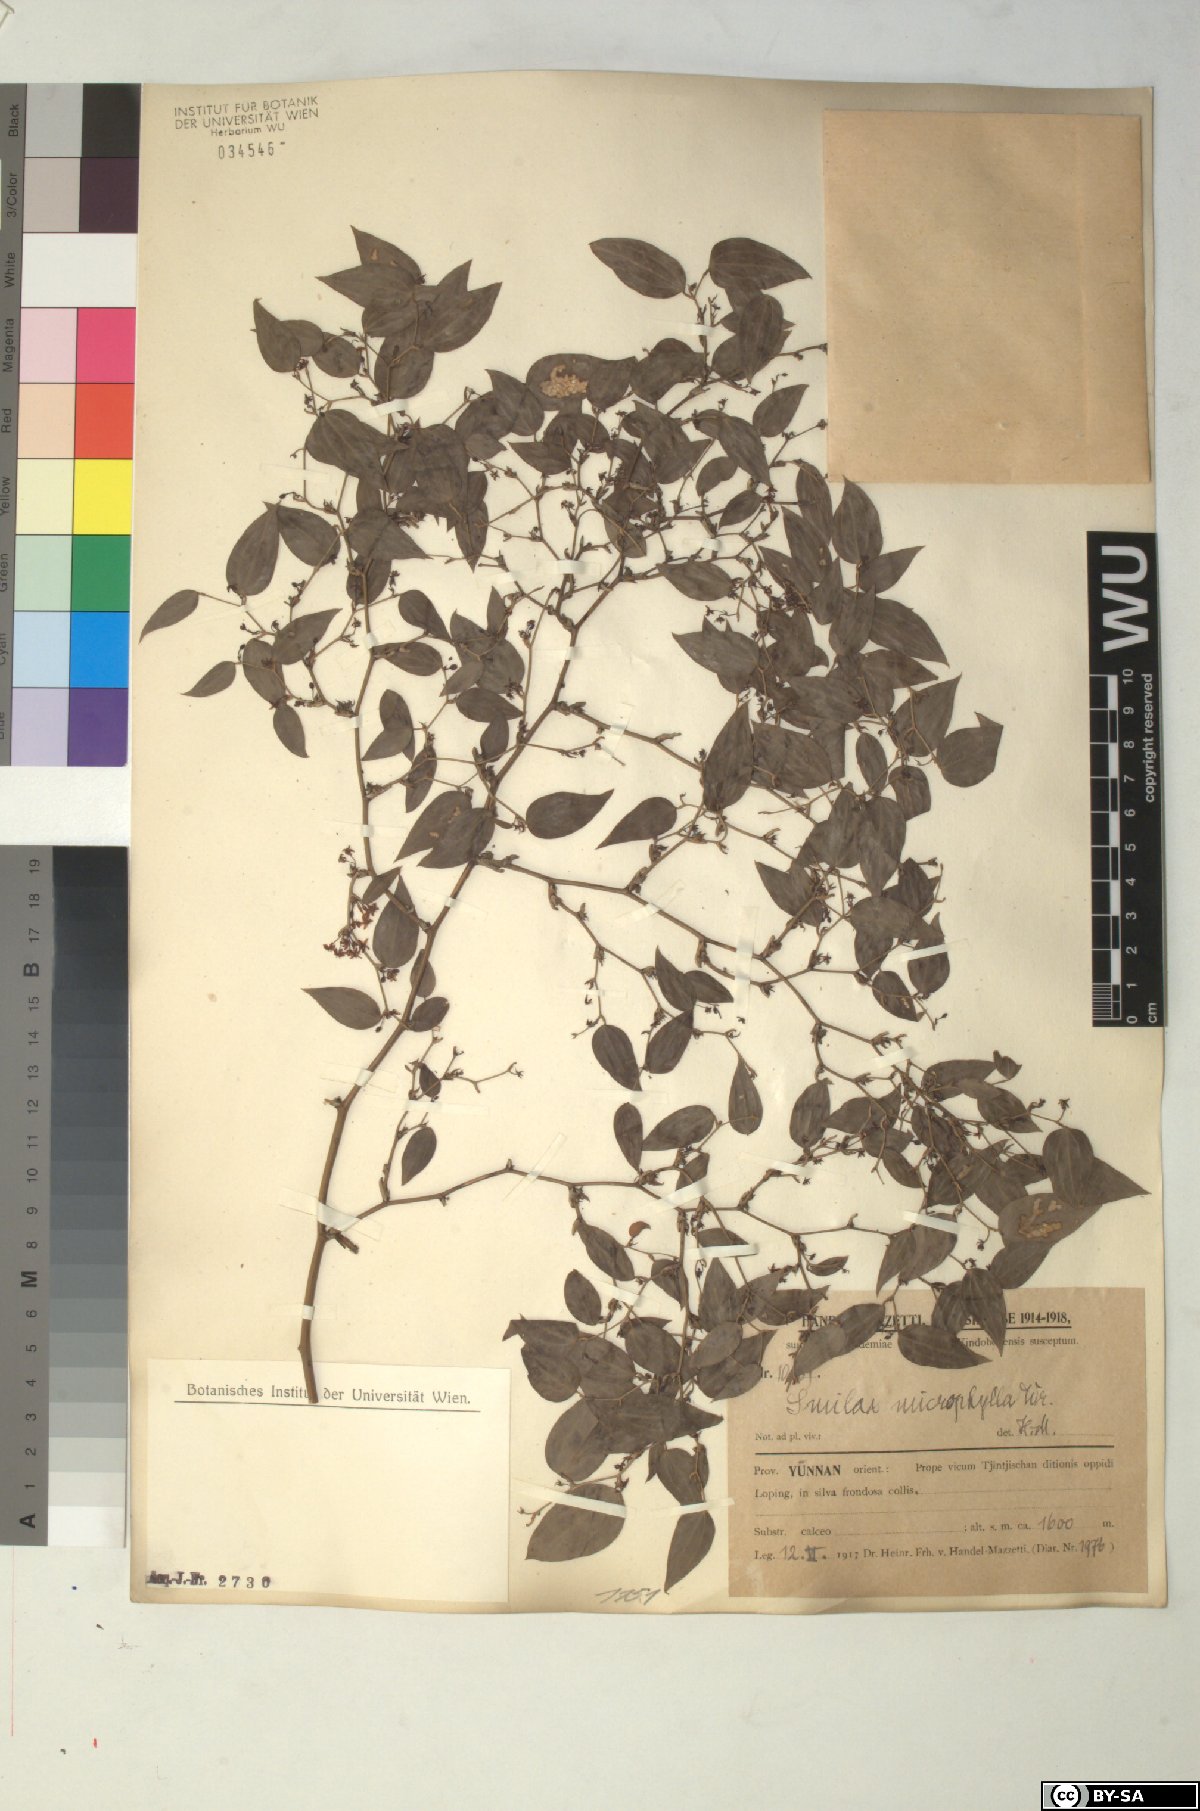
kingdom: Plantae
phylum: Tracheophyta
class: Liliopsida
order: Liliales
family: Smilacaceae
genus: Smilax
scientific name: Smilax microphylla
